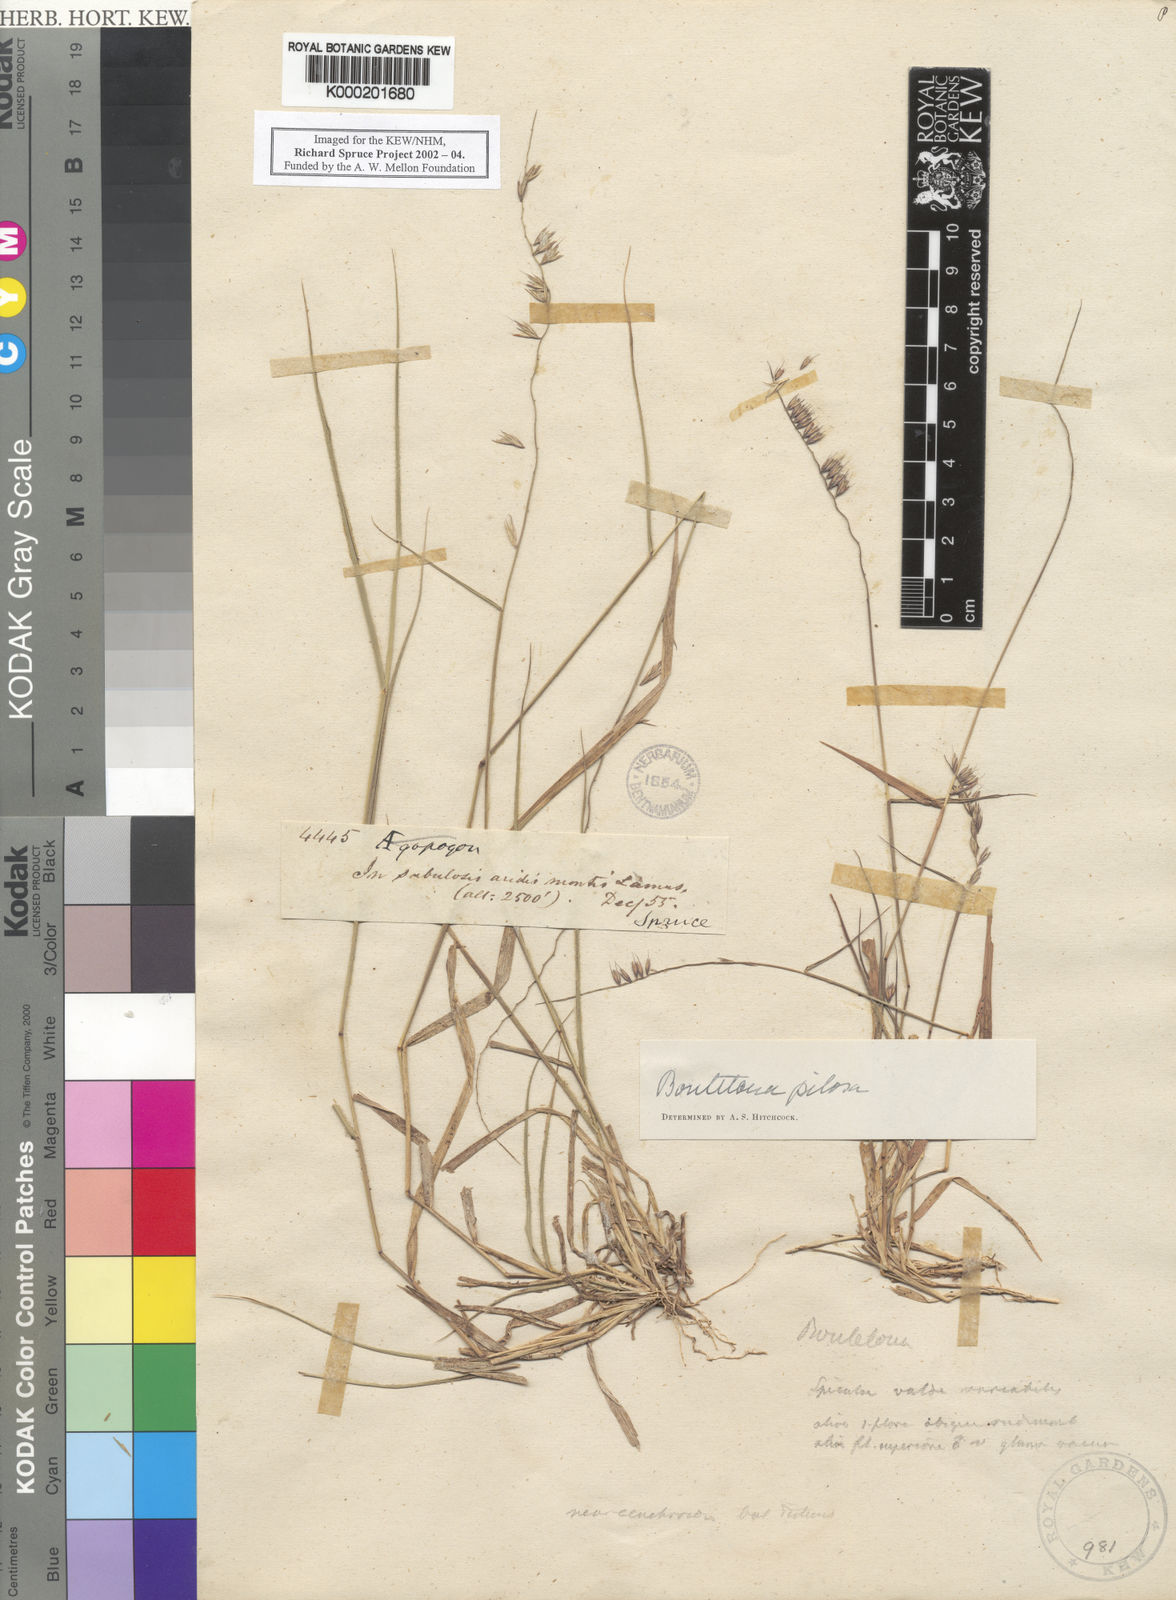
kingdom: Plantae
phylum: Tracheophyta
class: Liliopsida
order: Poales
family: Poaceae
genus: Bouteloua
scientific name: Bouteloua disticha
